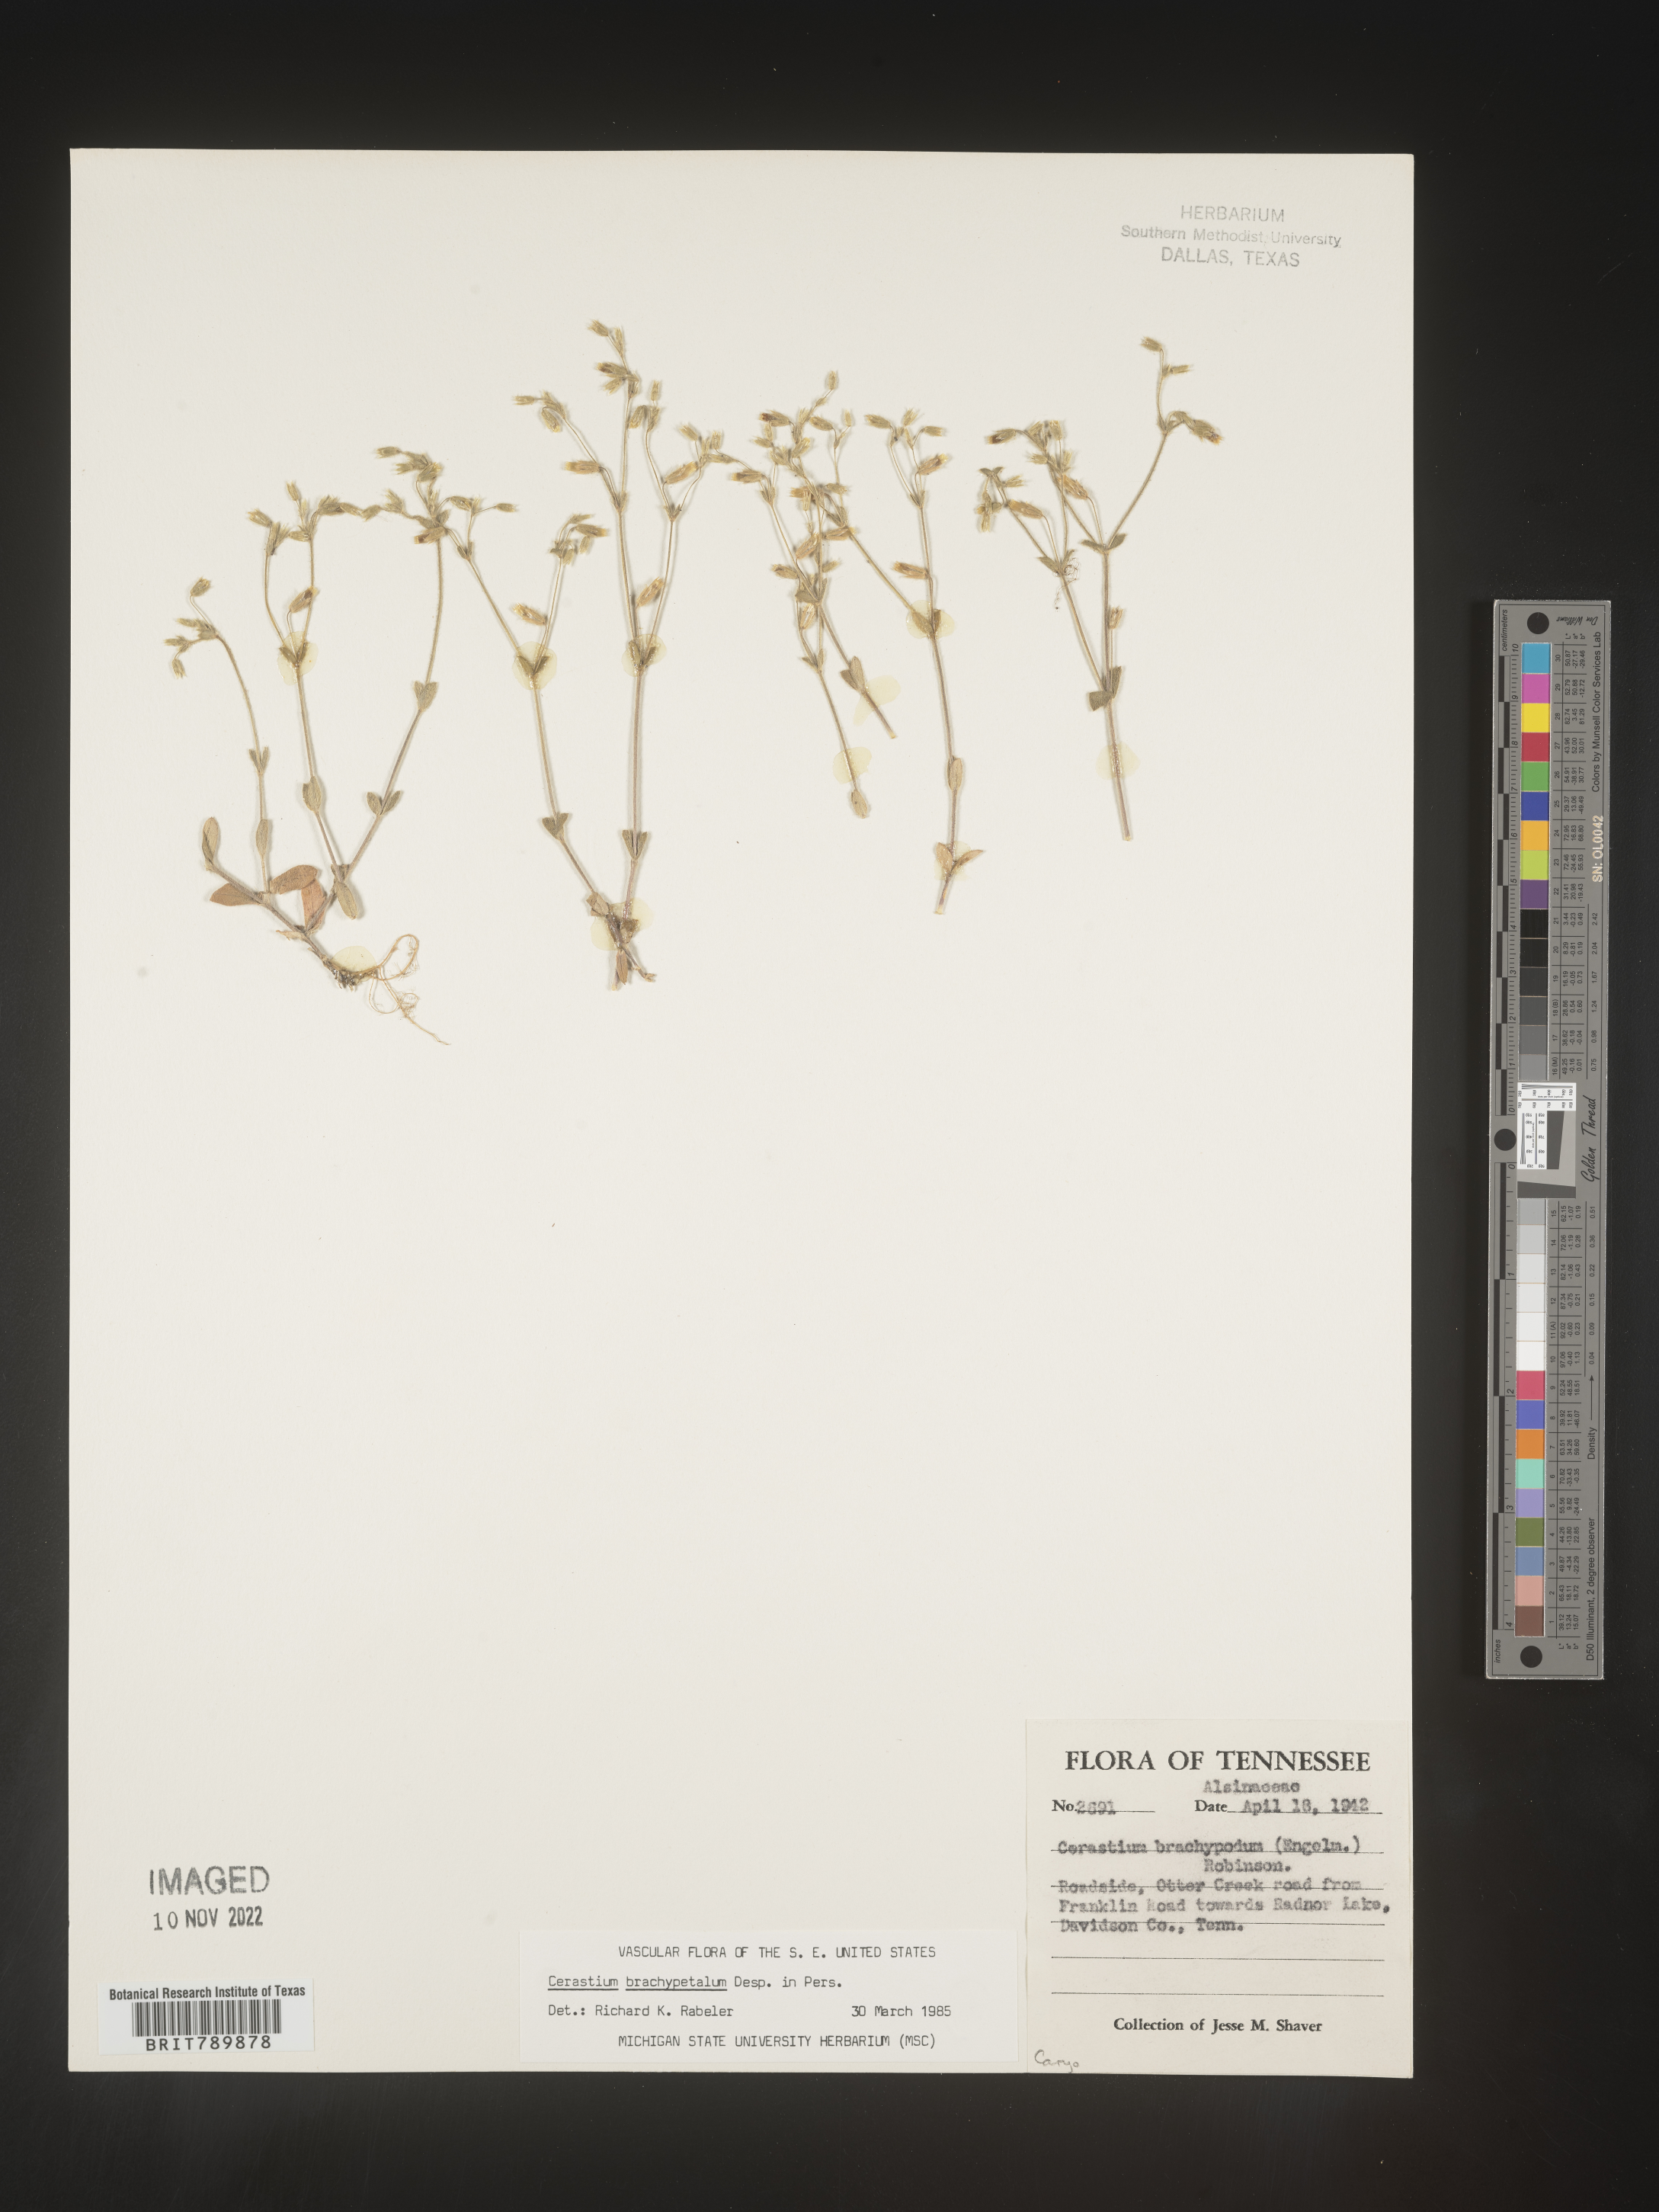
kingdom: Plantae
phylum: Tracheophyta
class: Magnoliopsida
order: Caryophyllales
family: Caryophyllaceae
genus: Cerastium
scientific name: Cerastium brachypetalum
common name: Grey mouse-ear
